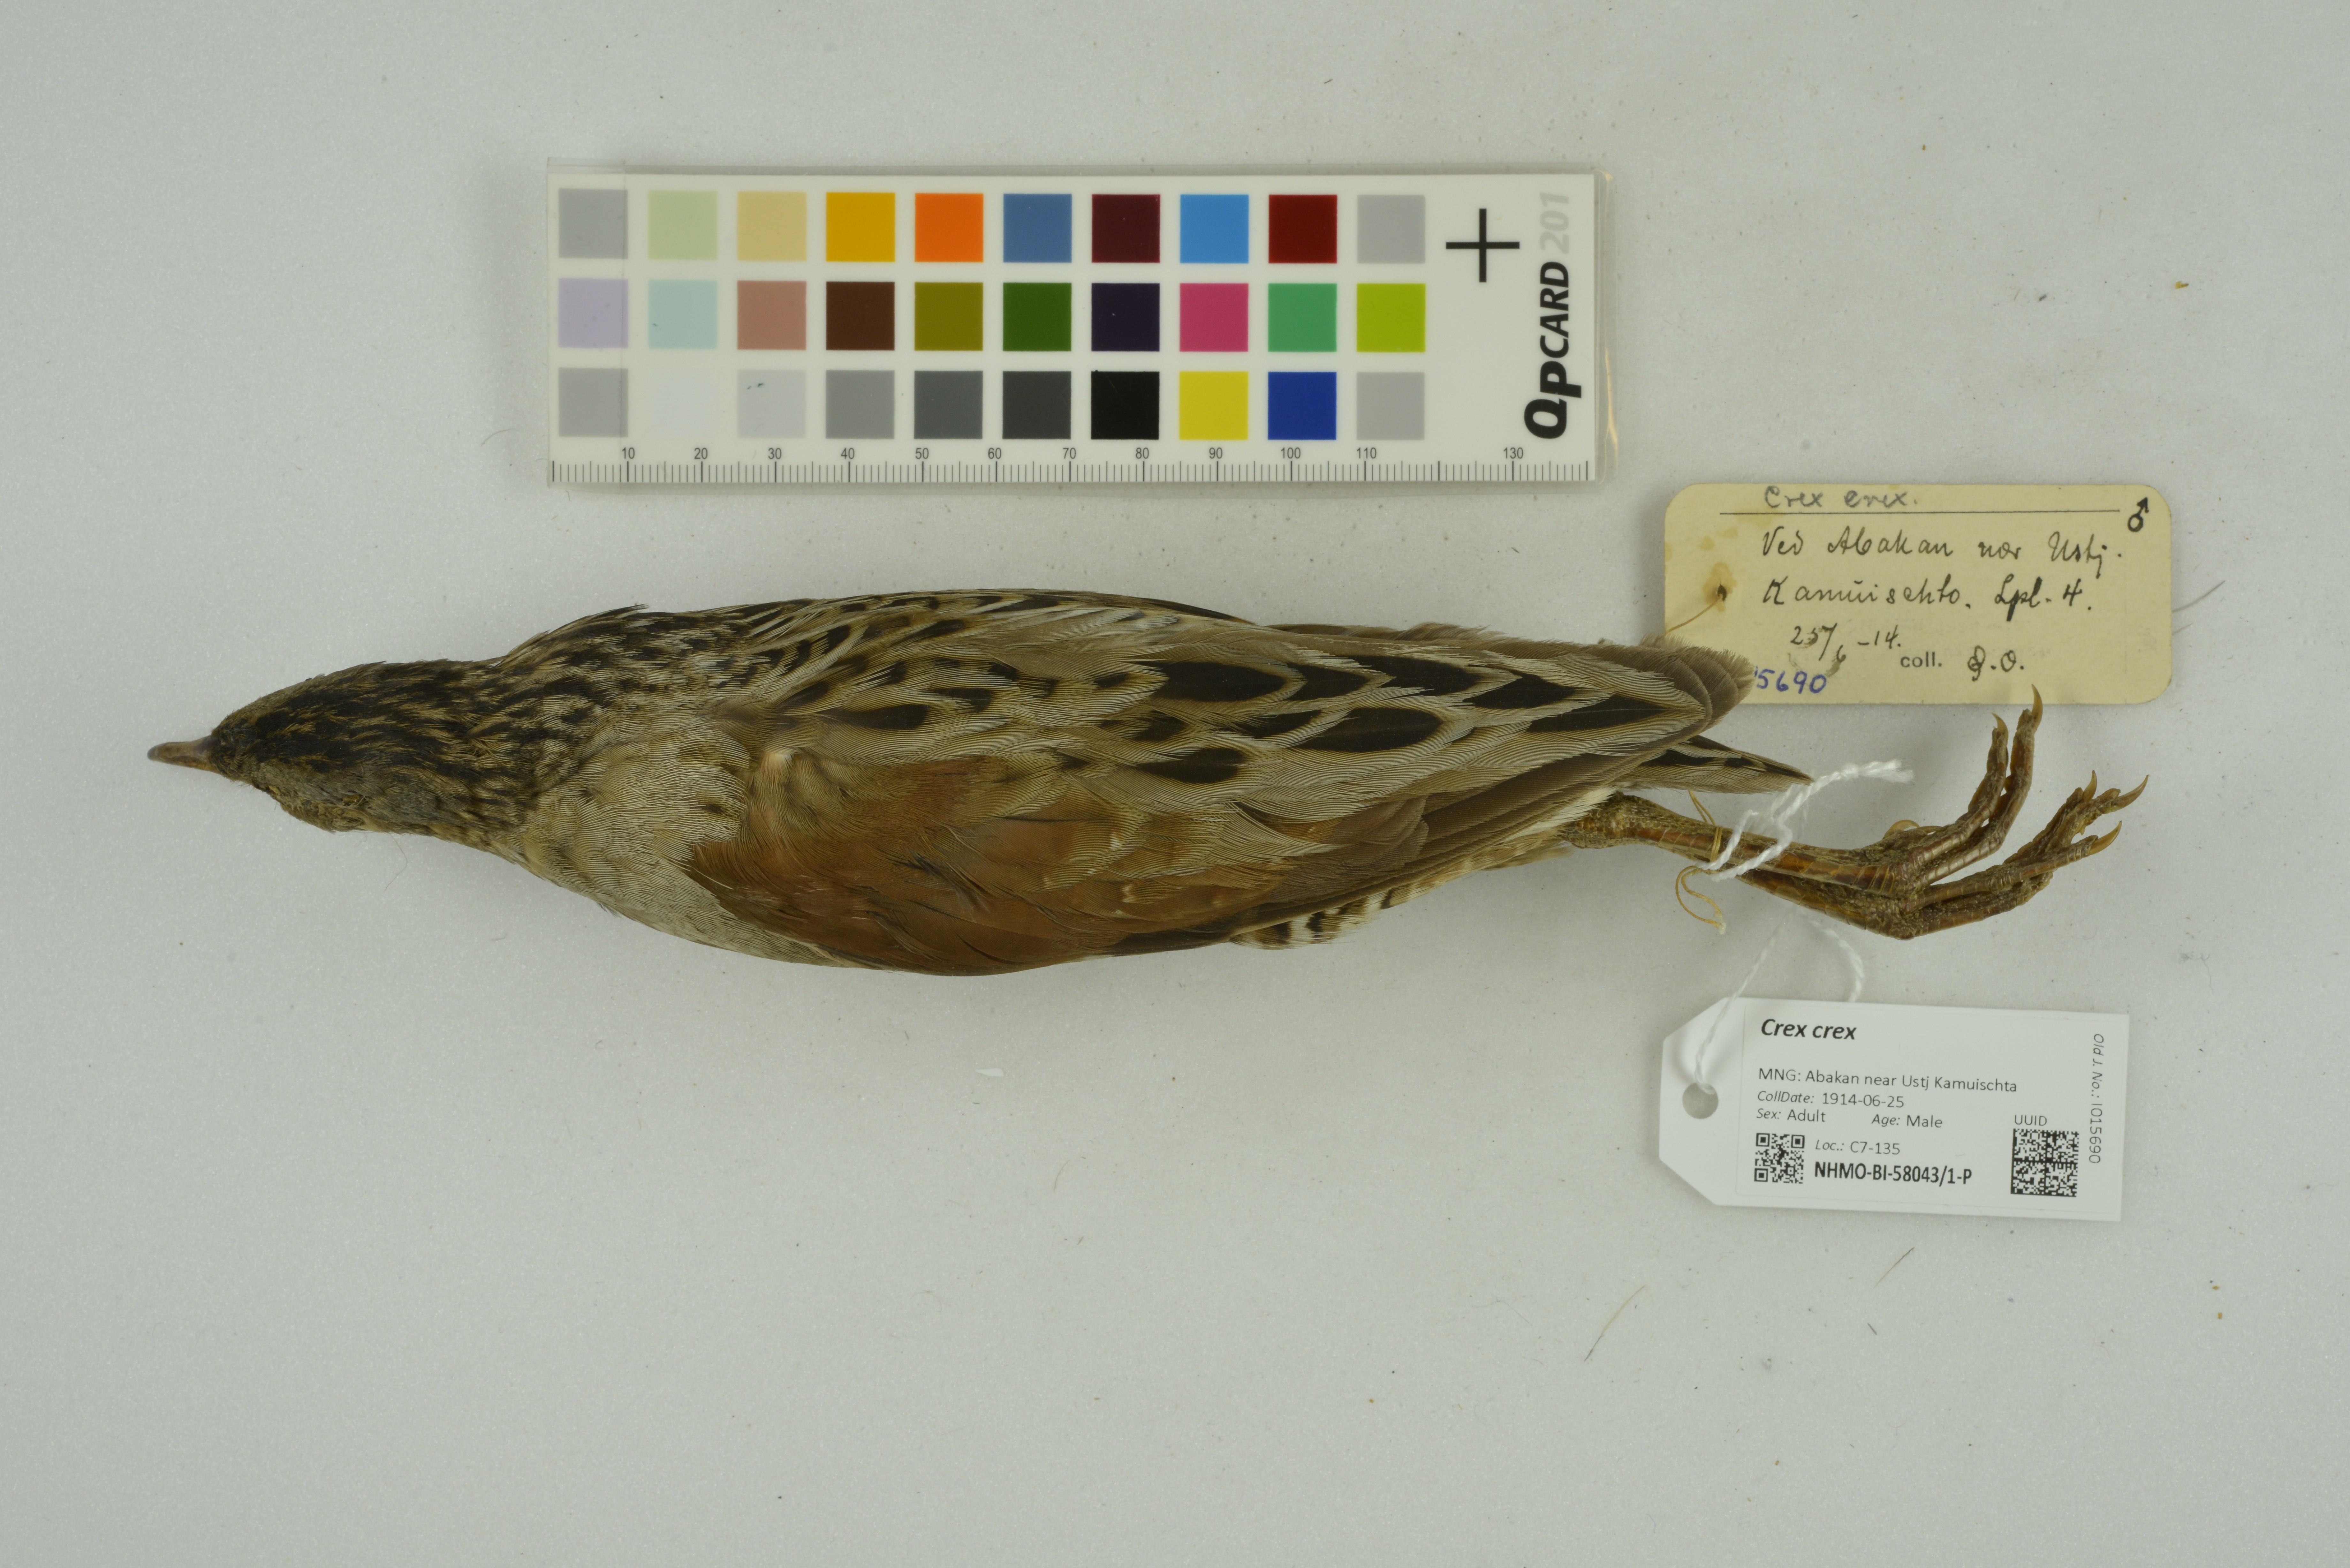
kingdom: Animalia
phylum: Chordata
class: Aves
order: Gruiformes
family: Rallidae
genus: Crex
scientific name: Crex crex
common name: Corn crake
